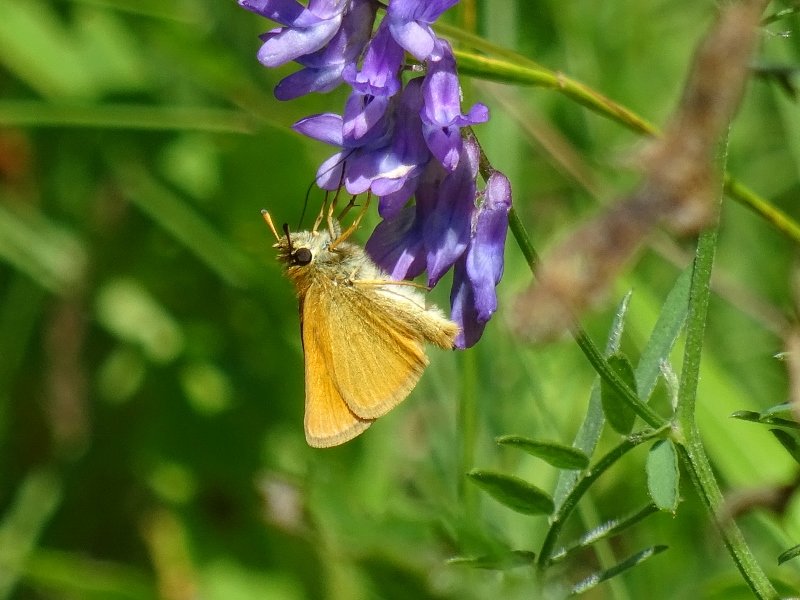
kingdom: Animalia
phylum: Arthropoda
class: Insecta
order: Lepidoptera
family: Hesperiidae
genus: Thymelicus
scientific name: Thymelicus lineola
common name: European Skipper
